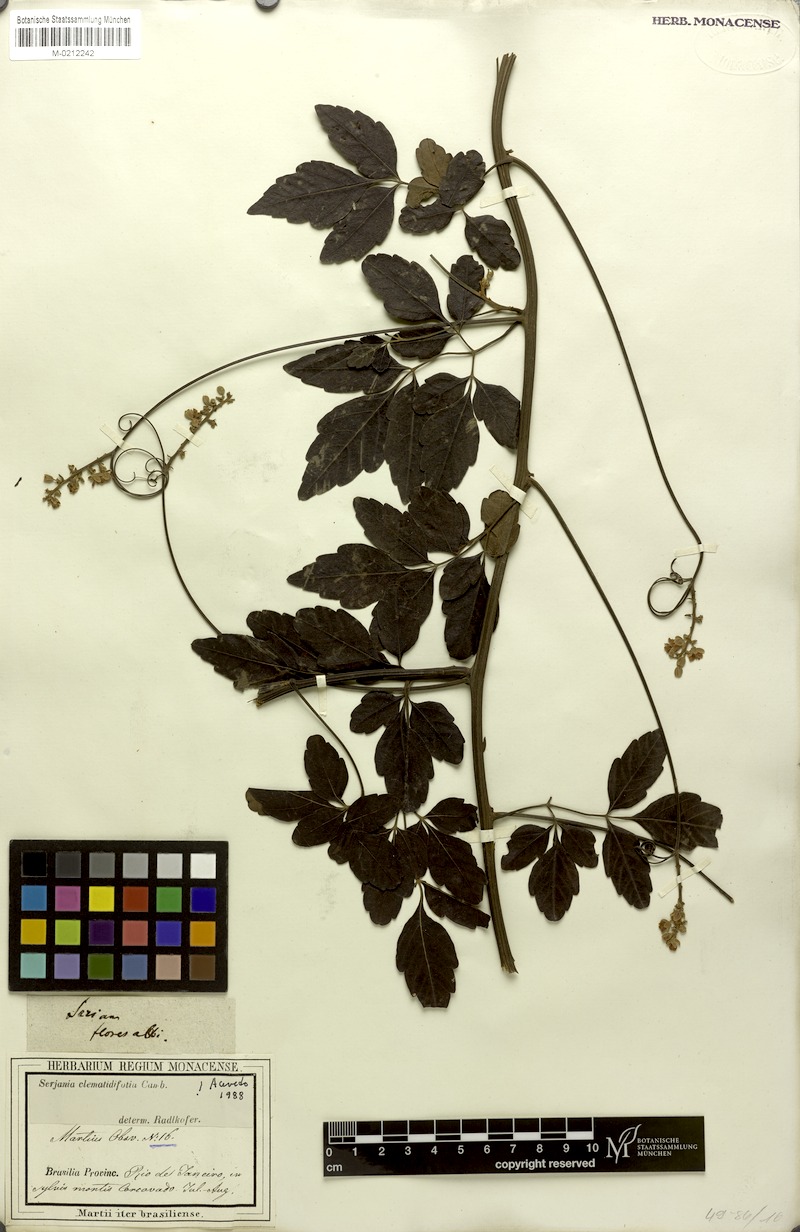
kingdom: Plantae
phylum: Tracheophyta
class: Magnoliopsida
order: Sapindales
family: Sapindaceae
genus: Serjania
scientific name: Serjania clematidifolia
